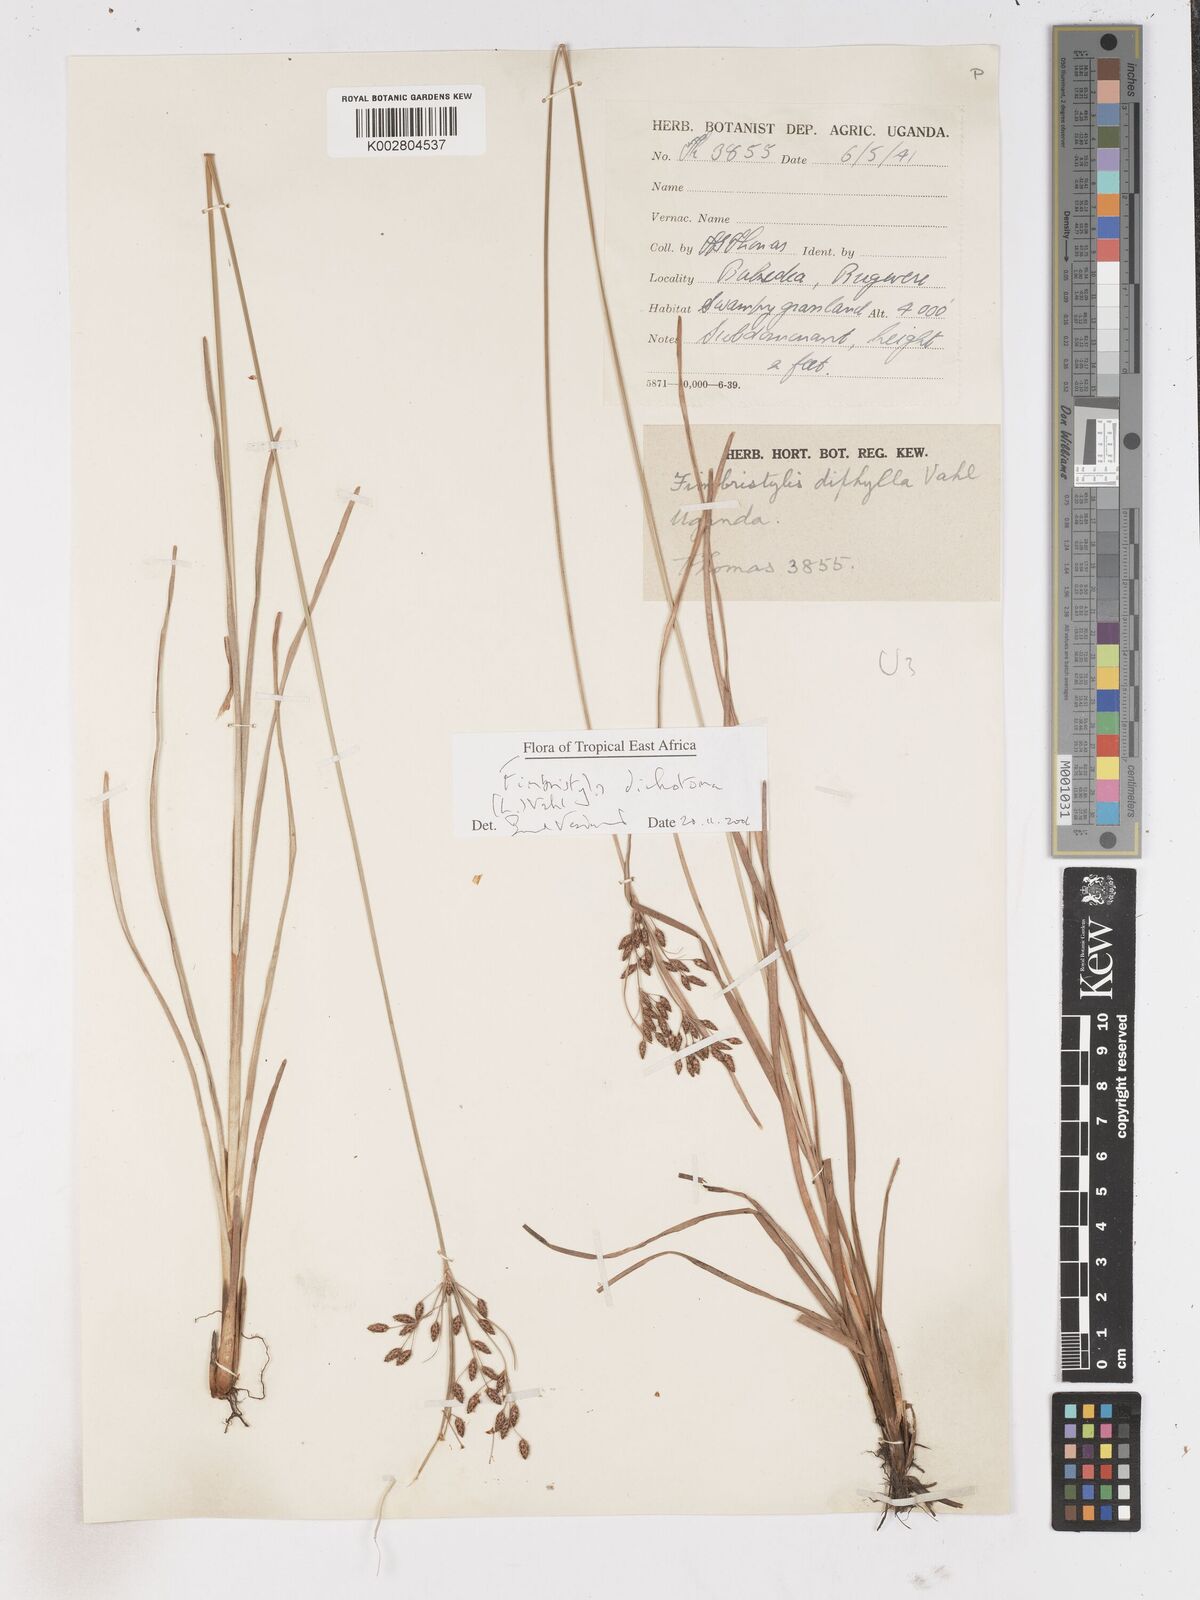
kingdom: Plantae
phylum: Tracheophyta
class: Liliopsida
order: Poales
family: Cyperaceae
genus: Fimbristylis
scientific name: Fimbristylis dichotoma
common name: Forked fimbry
